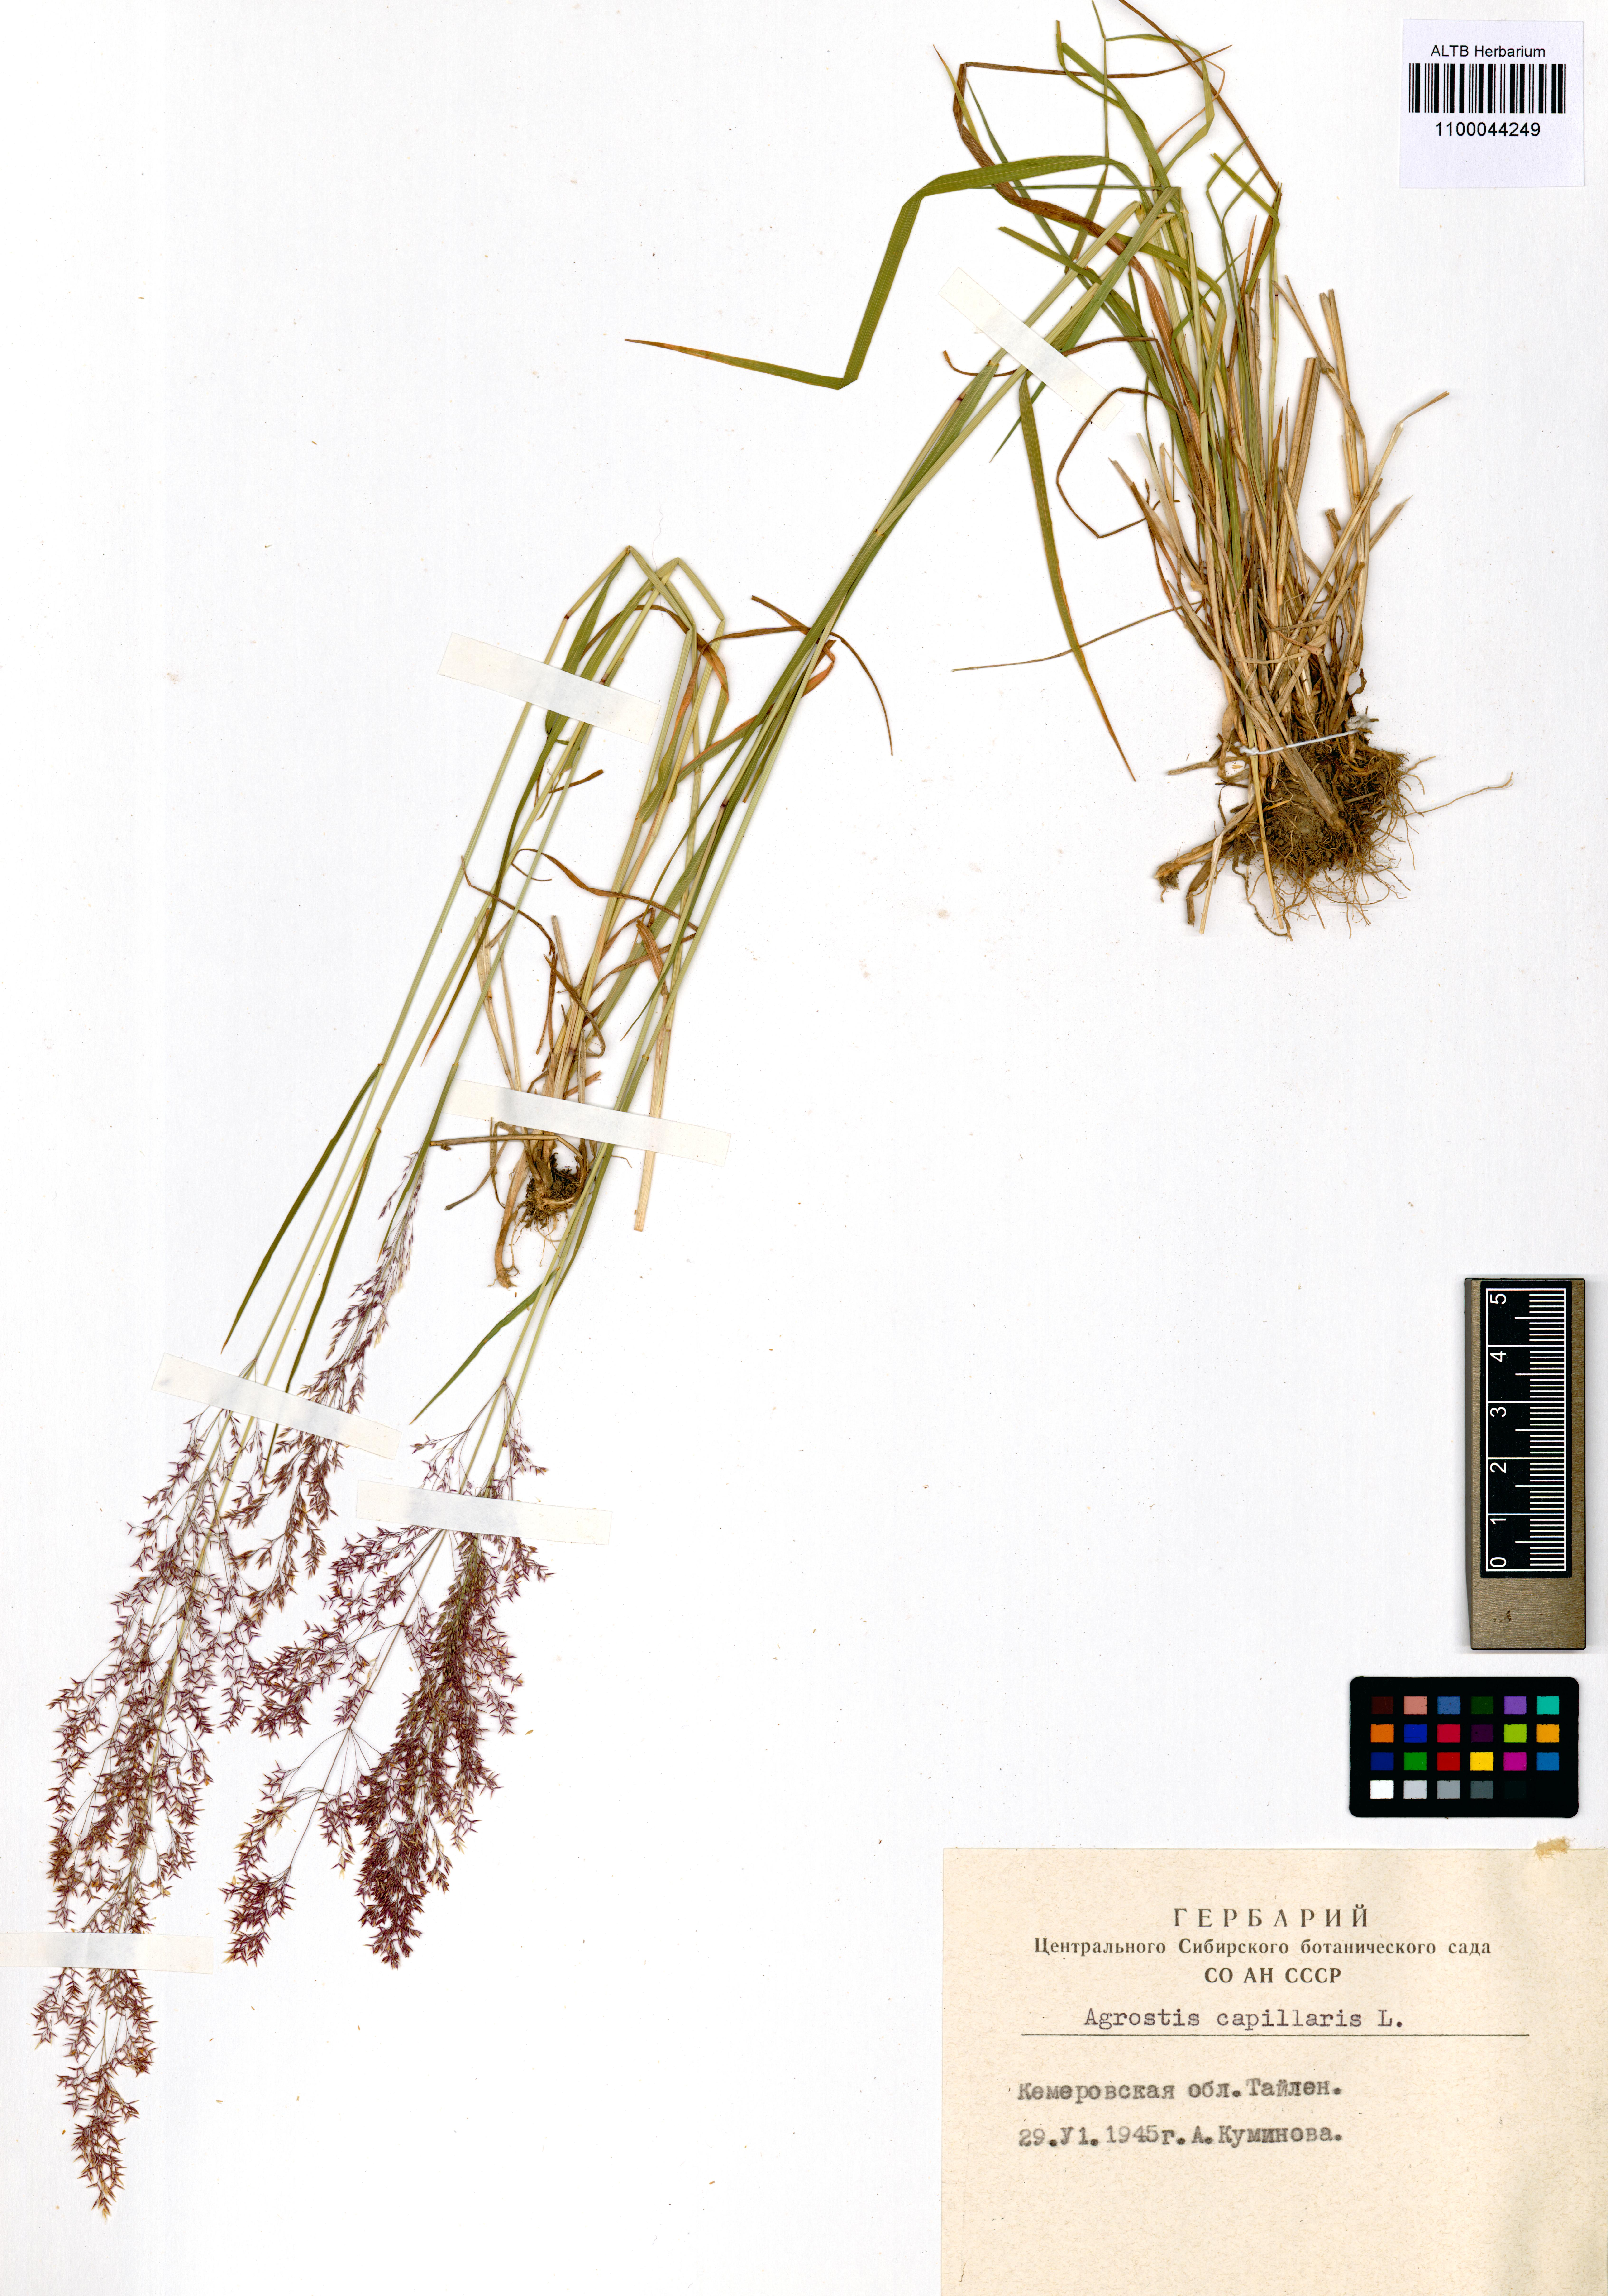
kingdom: Plantae
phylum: Tracheophyta
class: Liliopsida
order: Poales
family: Poaceae
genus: Agrostis
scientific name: Agrostis capillaris
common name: Colonial bentgrass
